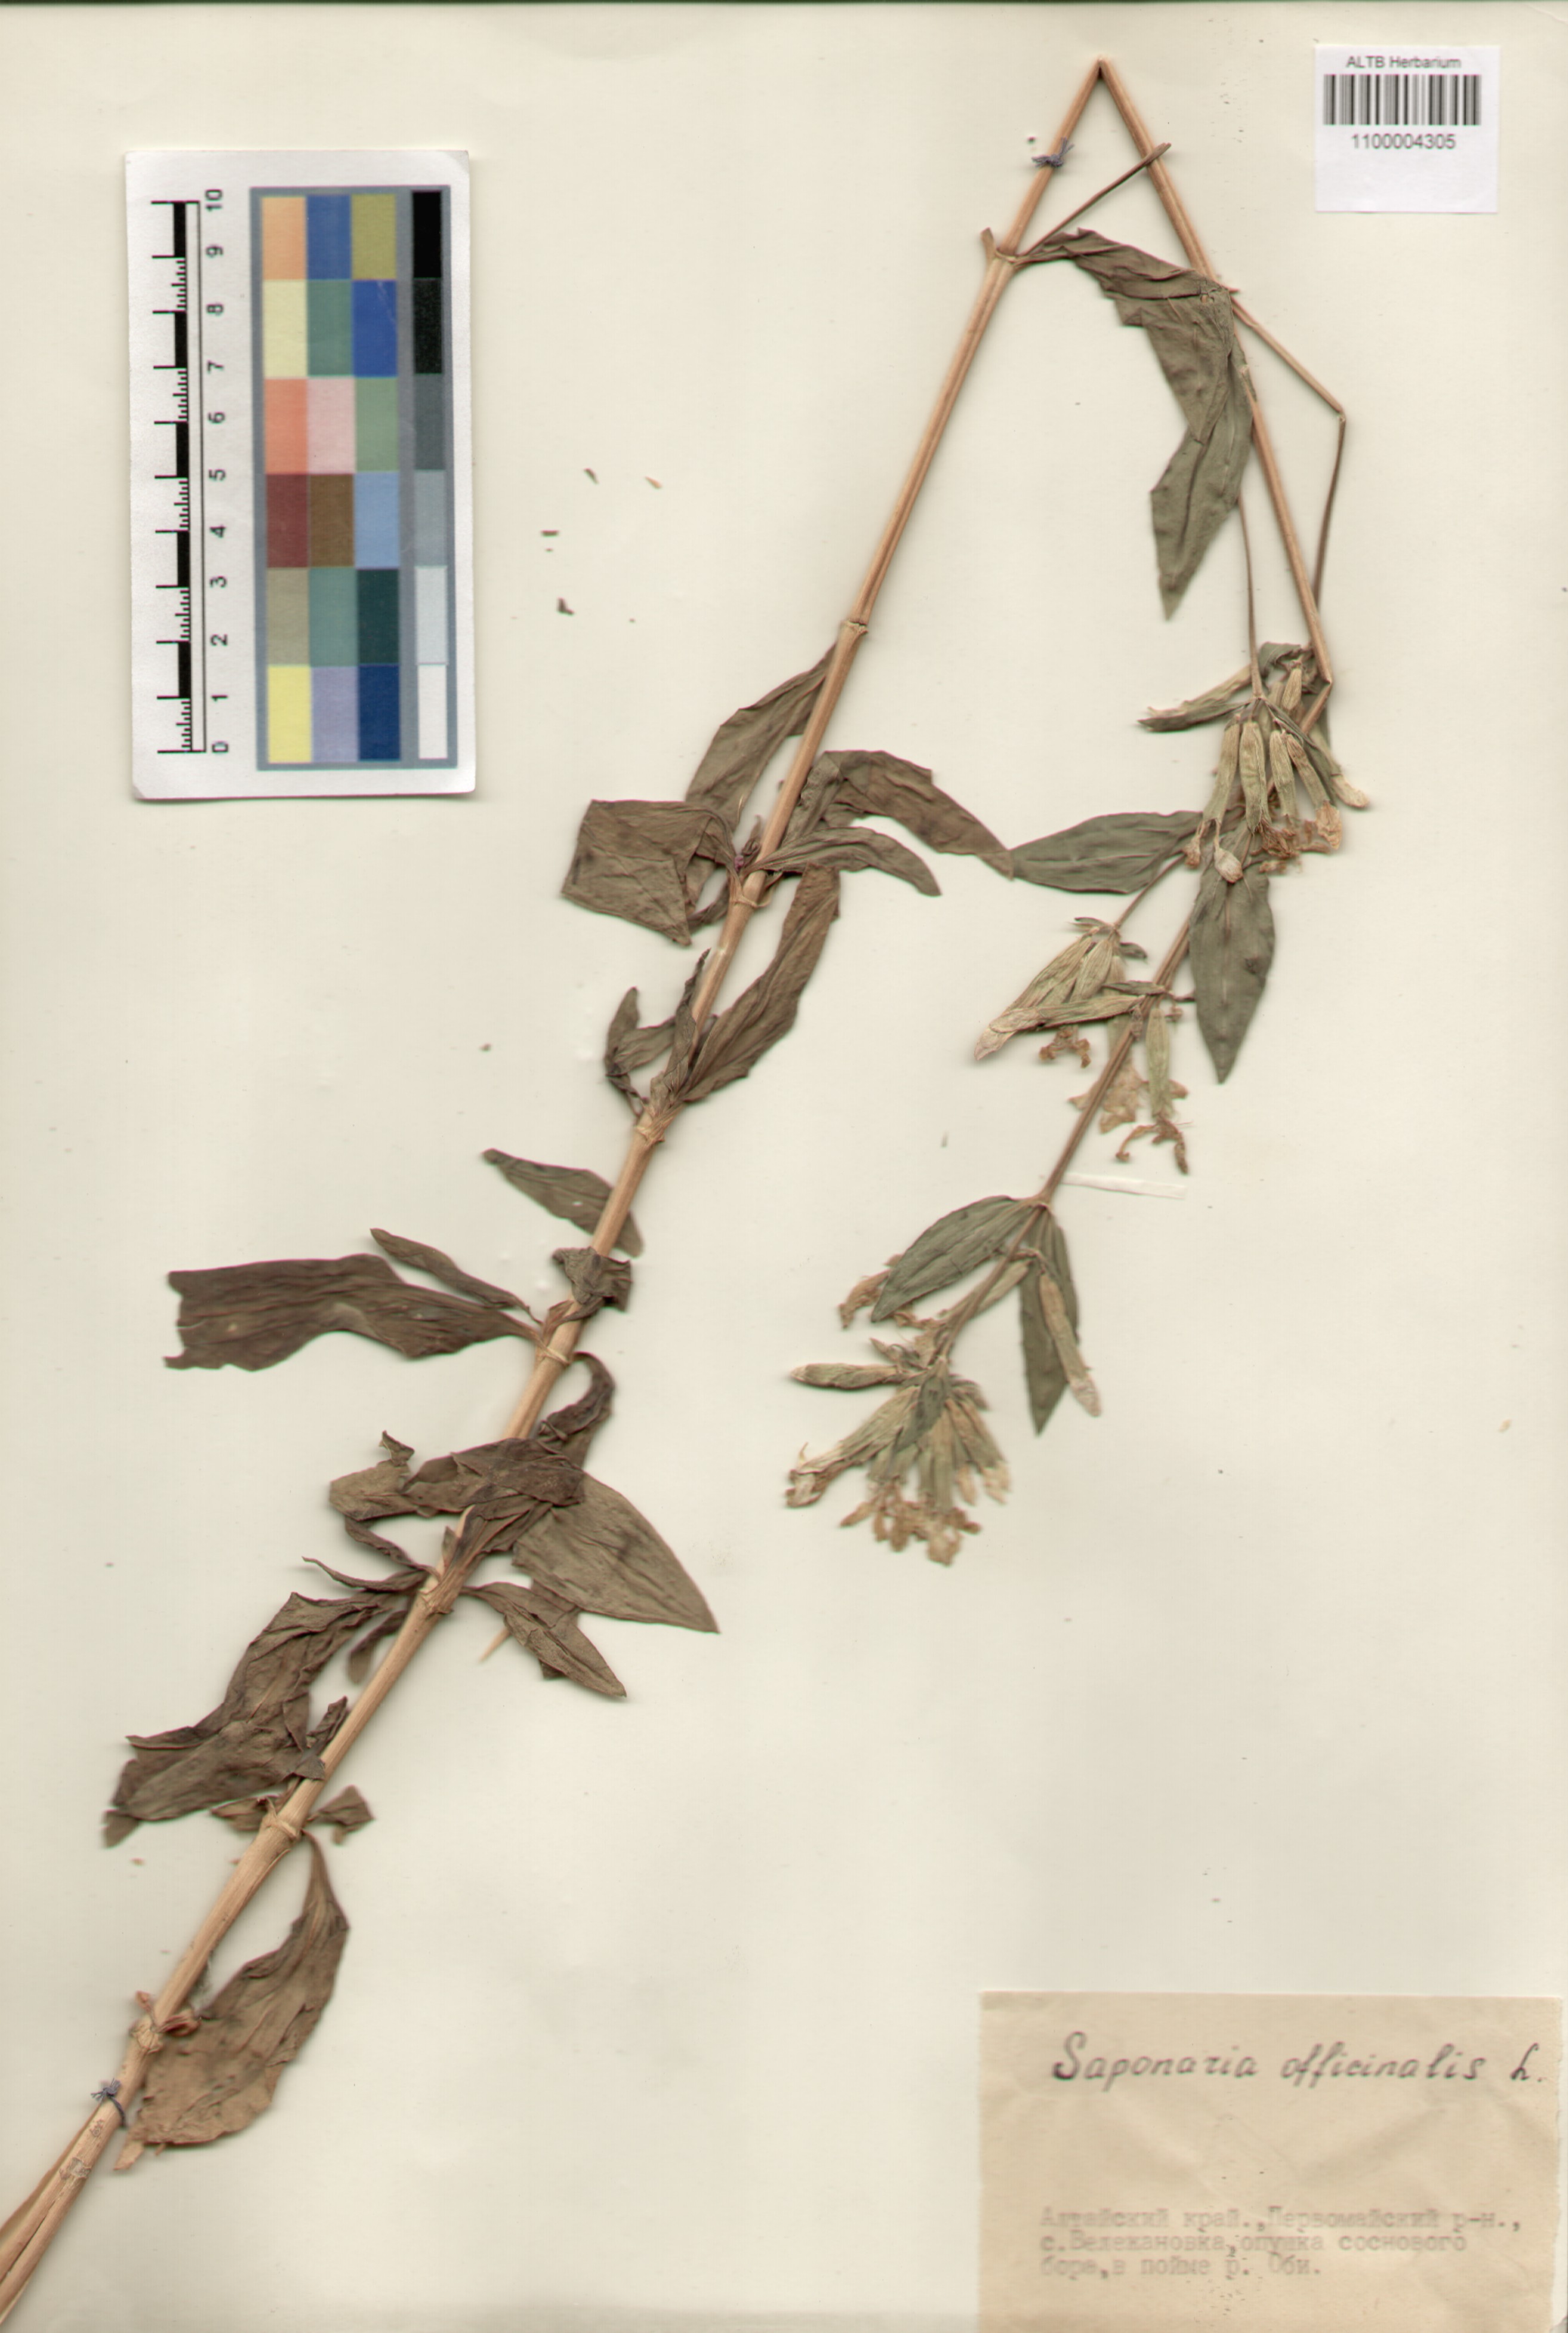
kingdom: Plantae
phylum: Tracheophyta
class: Magnoliopsida
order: Caryophyllales
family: Caryophyllaceae
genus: Saponaria
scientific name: Saponaria officinalis
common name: Soapwort
